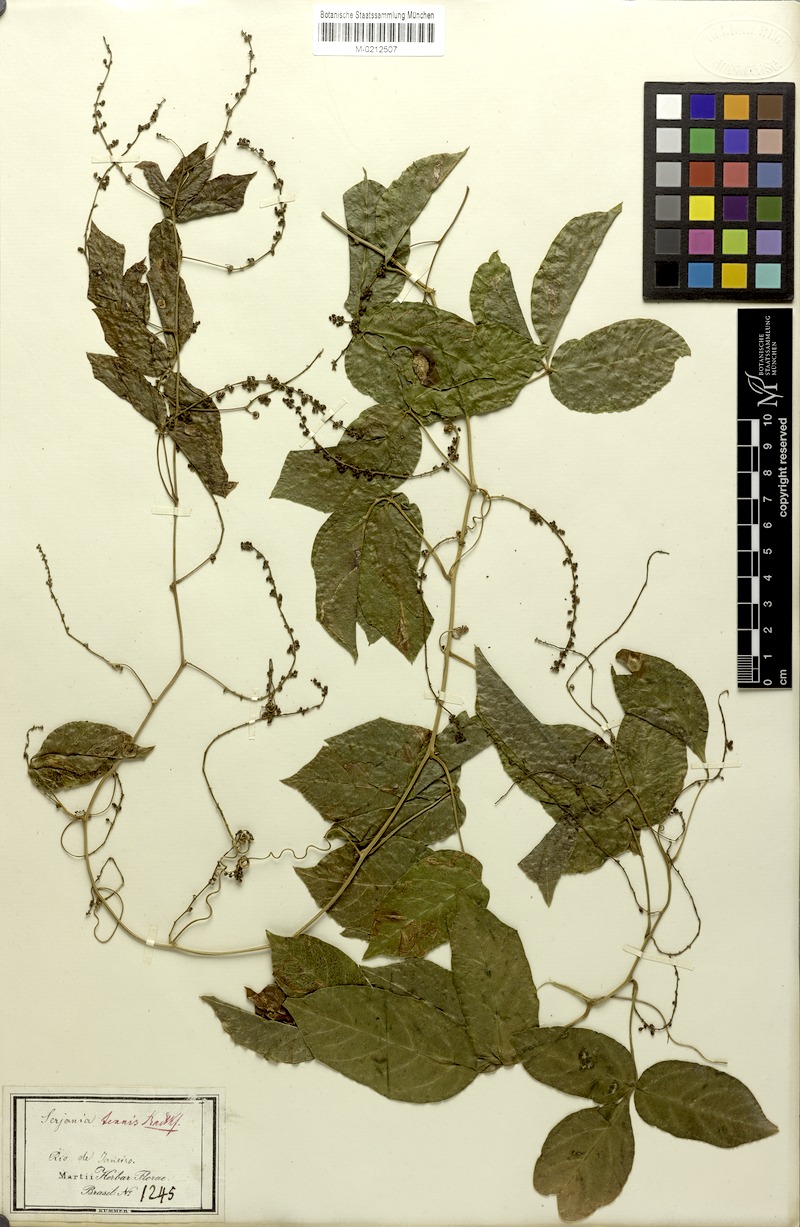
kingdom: Plantae
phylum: Tracheophyta
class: Magnoliopsida
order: Sapindales
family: Sapindaceae
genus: Serjania
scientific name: Serjania tenuis
